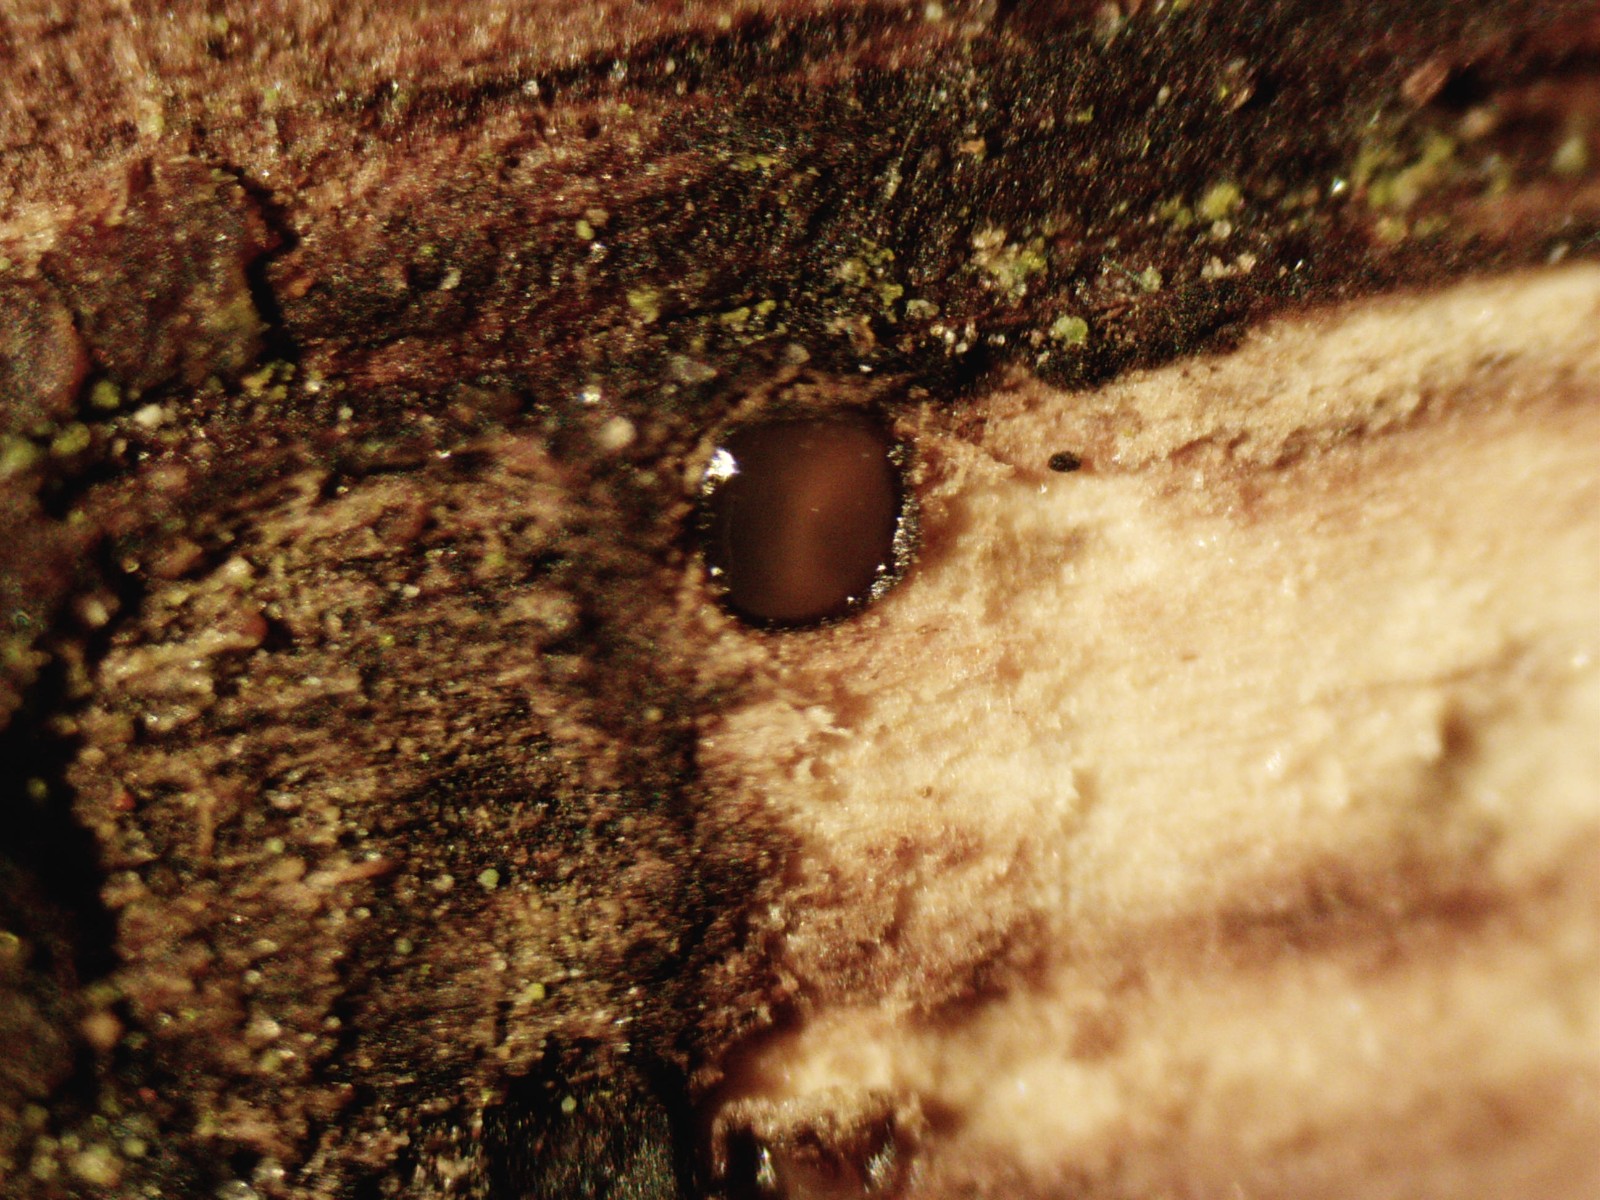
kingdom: Fungi
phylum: Ascomycota
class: Sordariomycetes
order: Xylariales
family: Diatrypaceae
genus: Eutypa
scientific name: Eutypa lata
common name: almindelig kulskorpe
